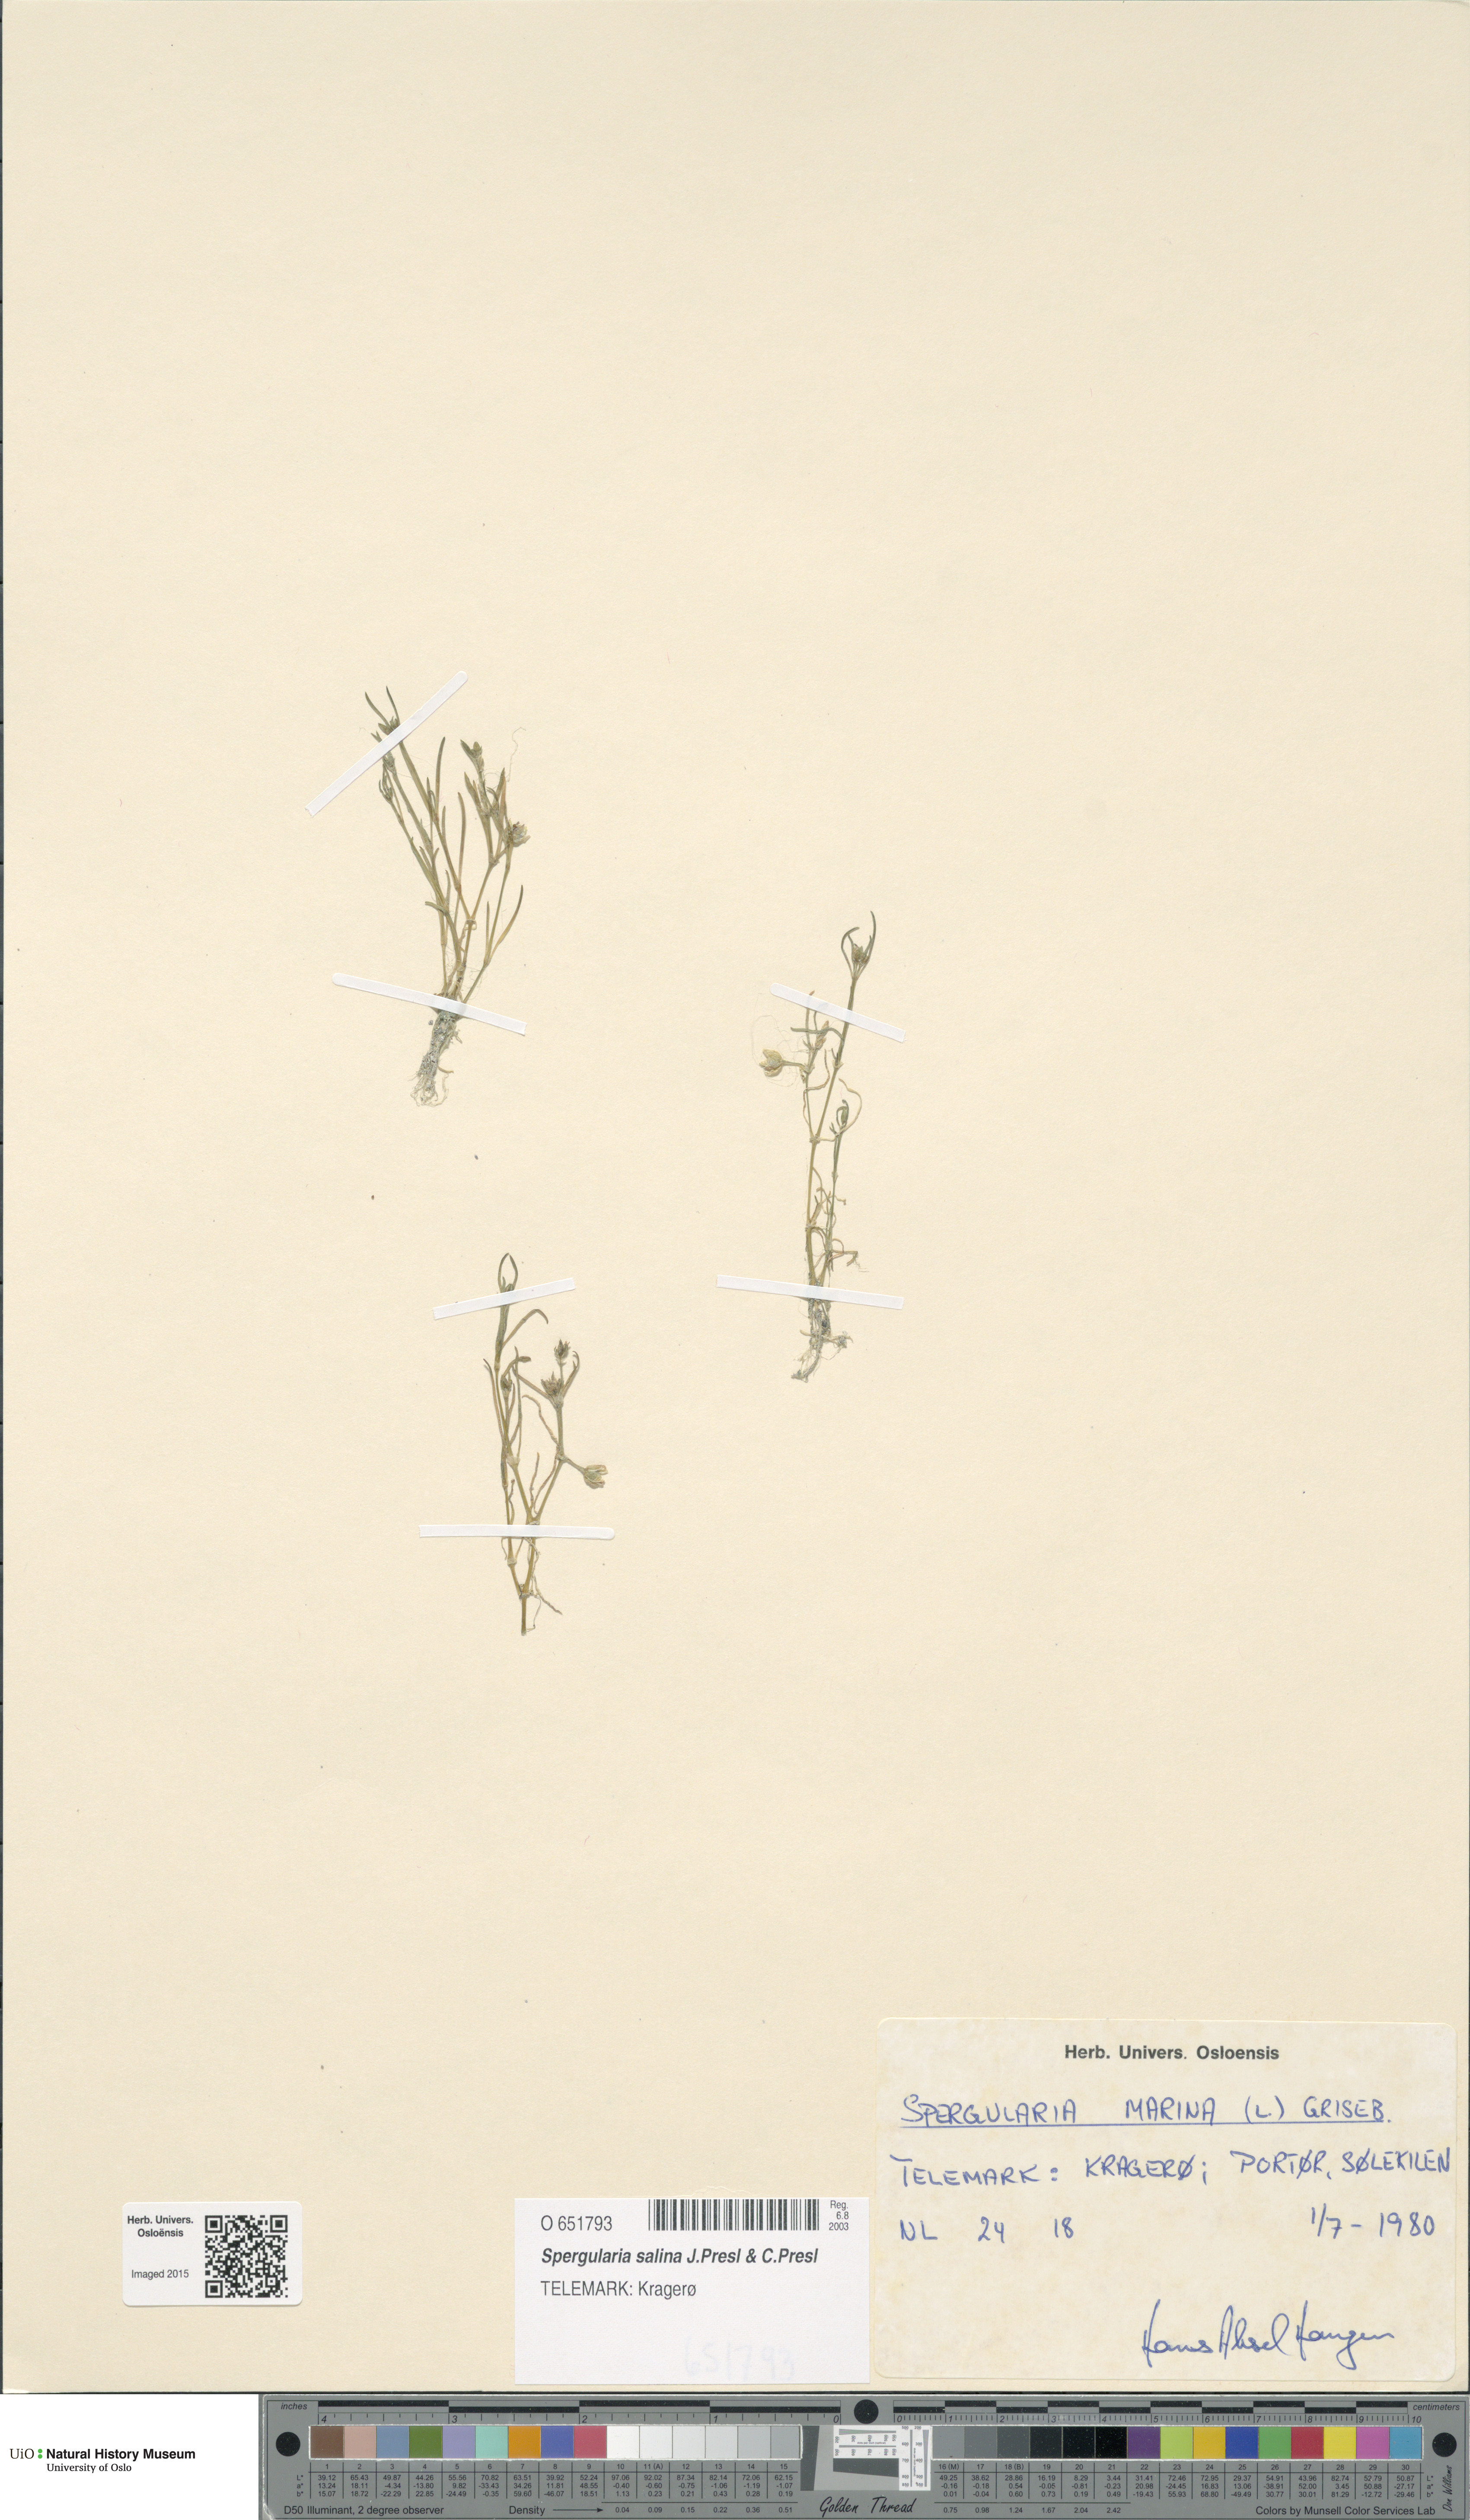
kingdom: Plantae
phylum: Tracheophyta
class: Magnoliopsida
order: Caryophyllales
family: Caryophyllaceae
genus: Spergularia
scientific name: Spergularia marina
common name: Lesser sea-spurrey
